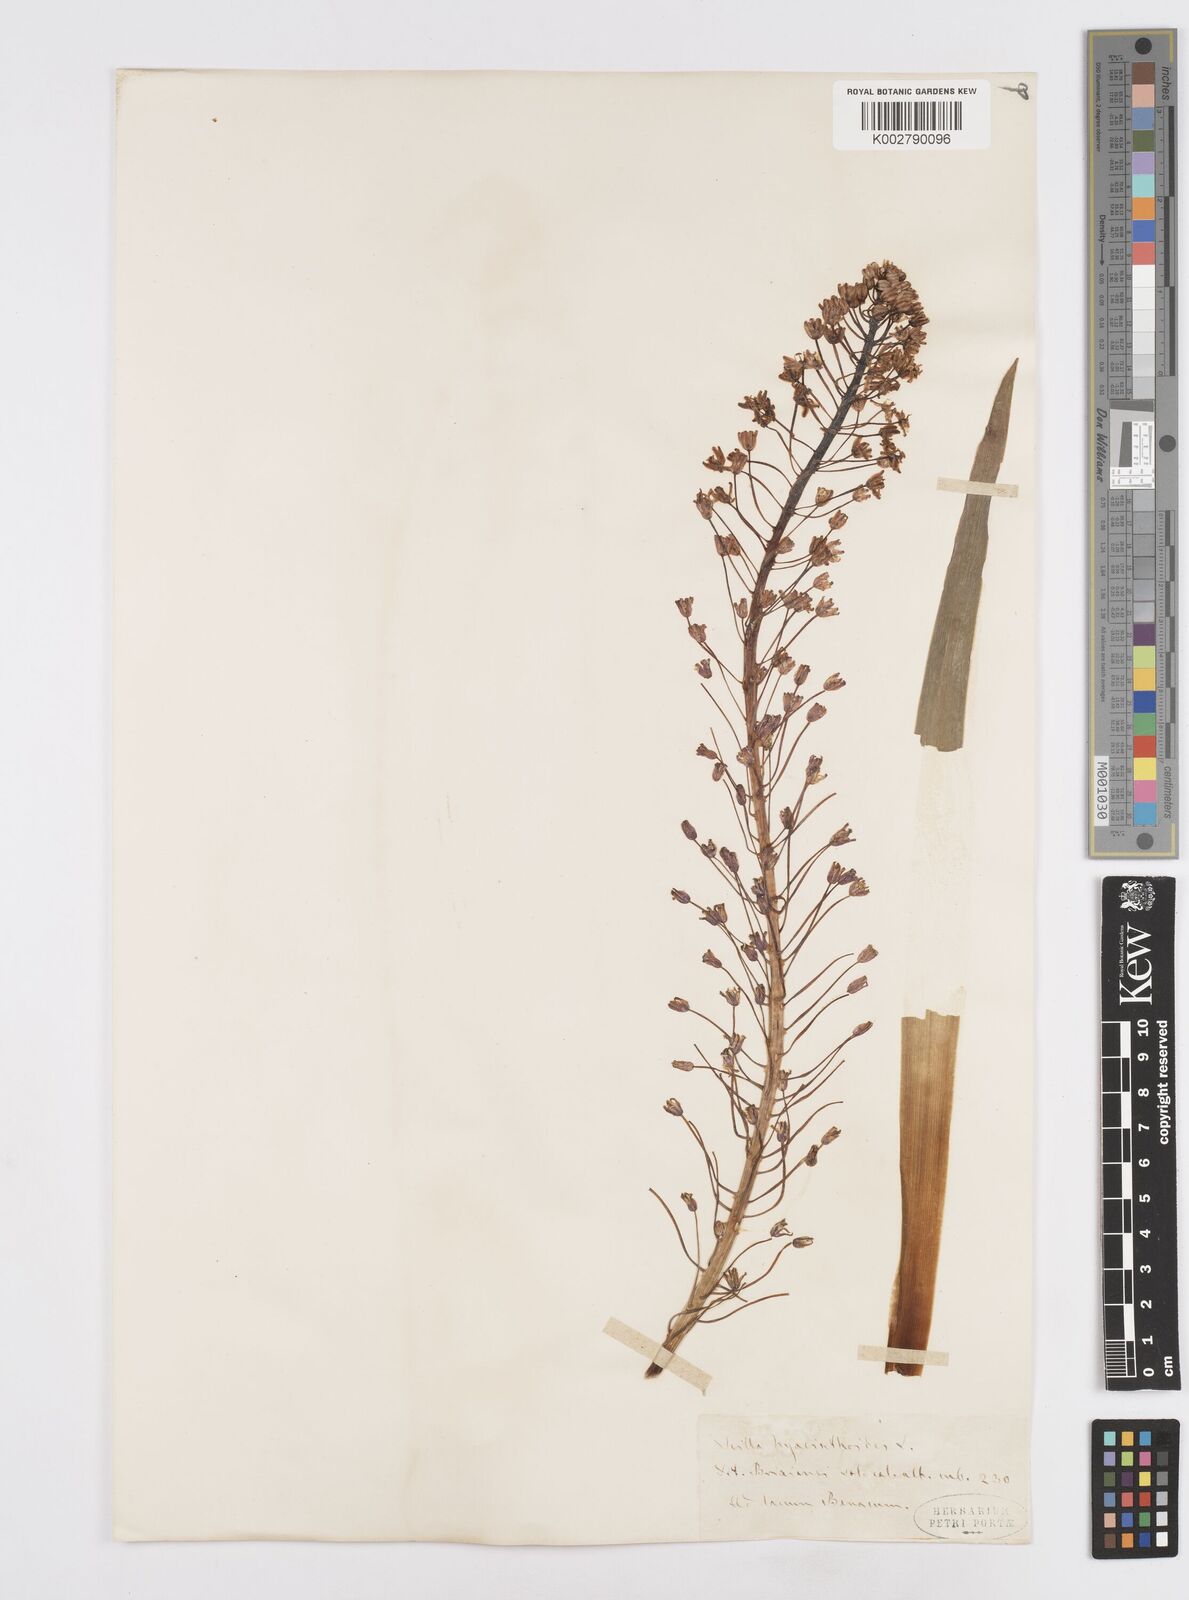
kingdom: Plantae
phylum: Tracheophyta
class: Liliopsida
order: Asparagales
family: Asparagaceae
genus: Scilla
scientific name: Scilla hyacinthoides
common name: Scilla
